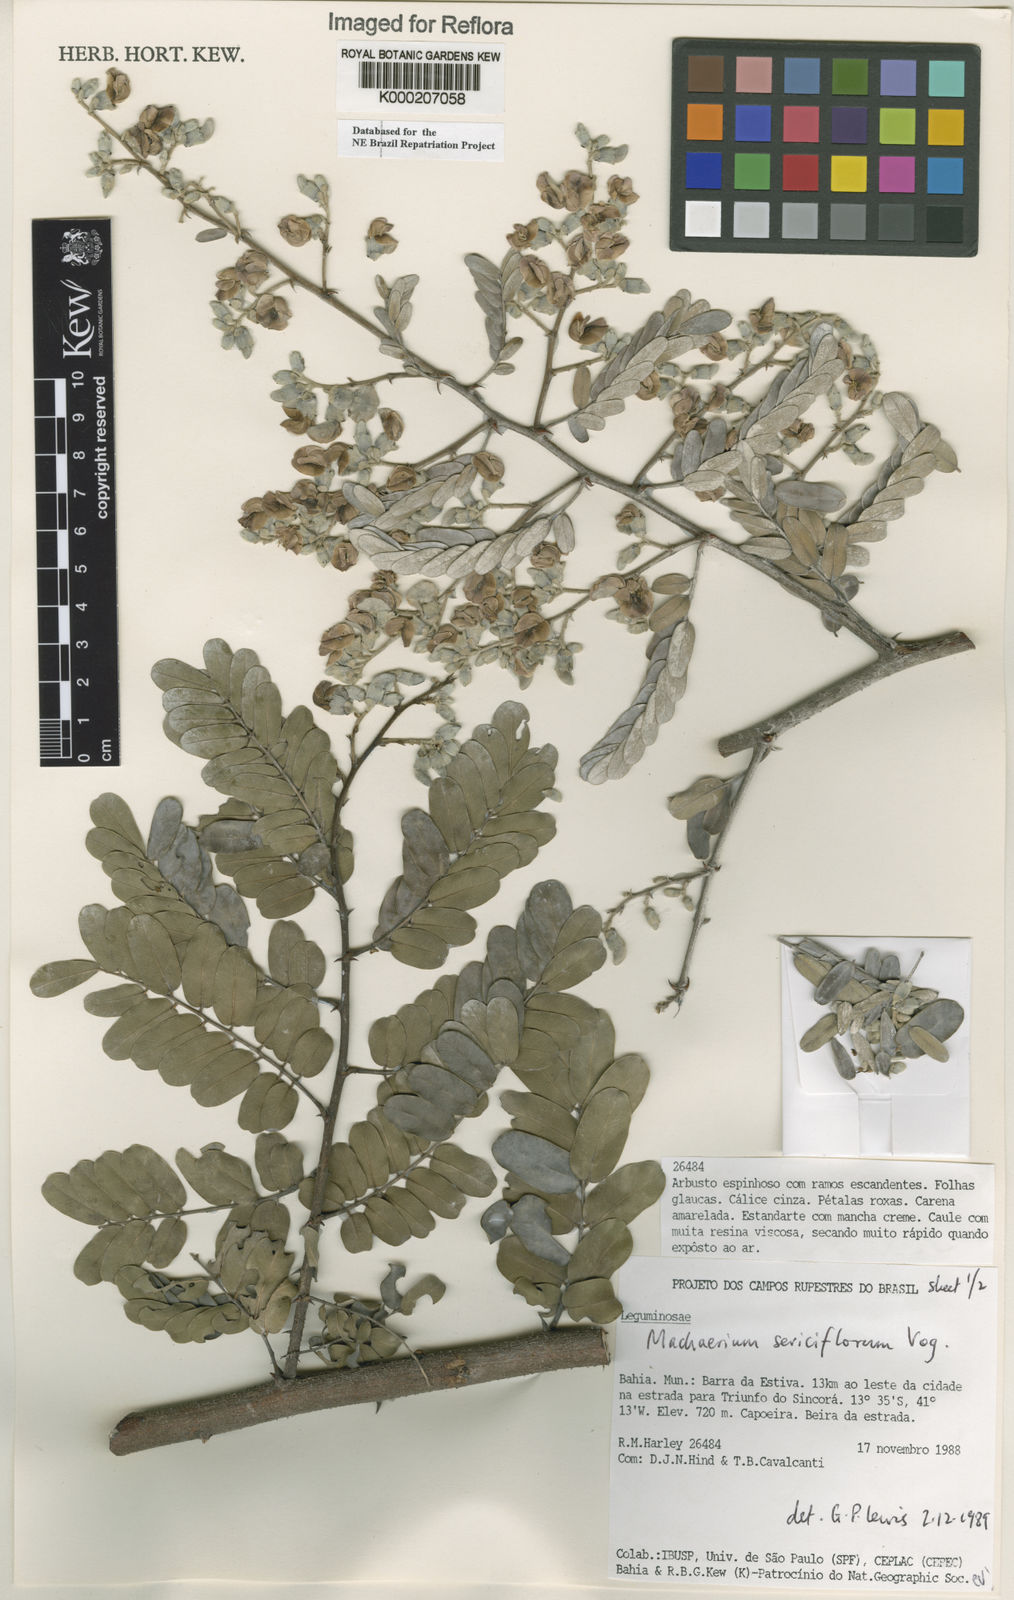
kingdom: Plantae
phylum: Tracheophyta
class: Magnoliopsida
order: Fabales
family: Fabaceae
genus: Machaerium
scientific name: Machaerium
